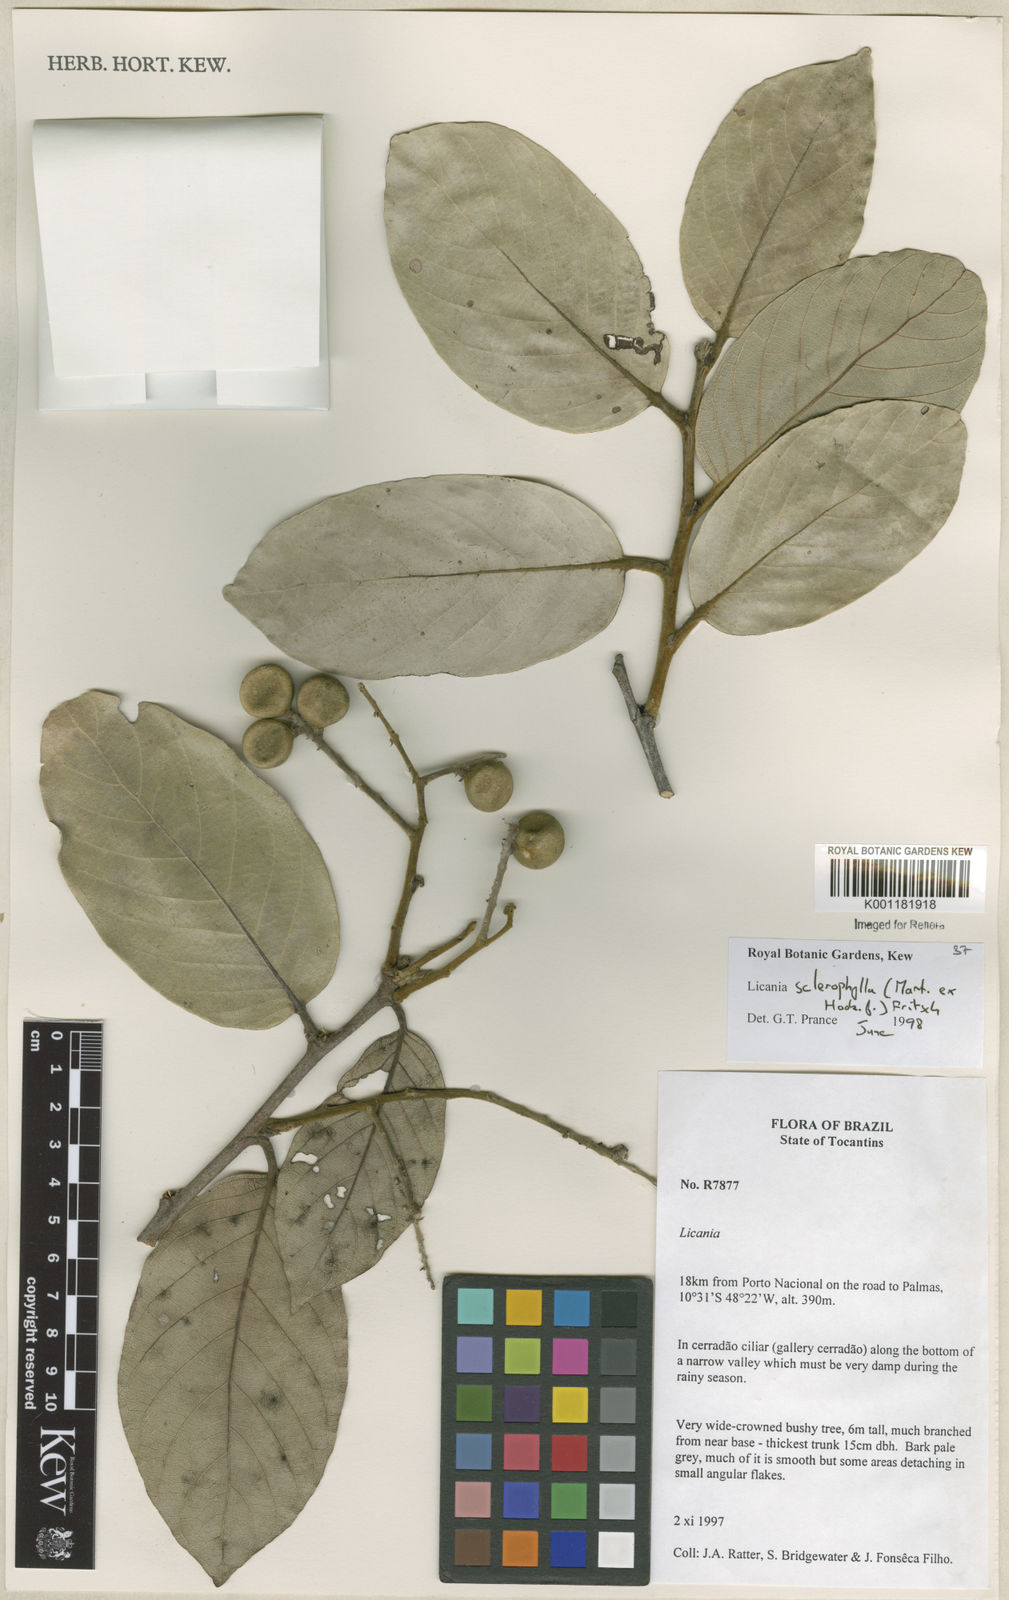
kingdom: Plantae
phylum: Tracheophyta
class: Magnoliopsida
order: Malpighiales
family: Chrysobalanaceae
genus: Leptobalanus
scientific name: Leptobalanus sclerophyllus
